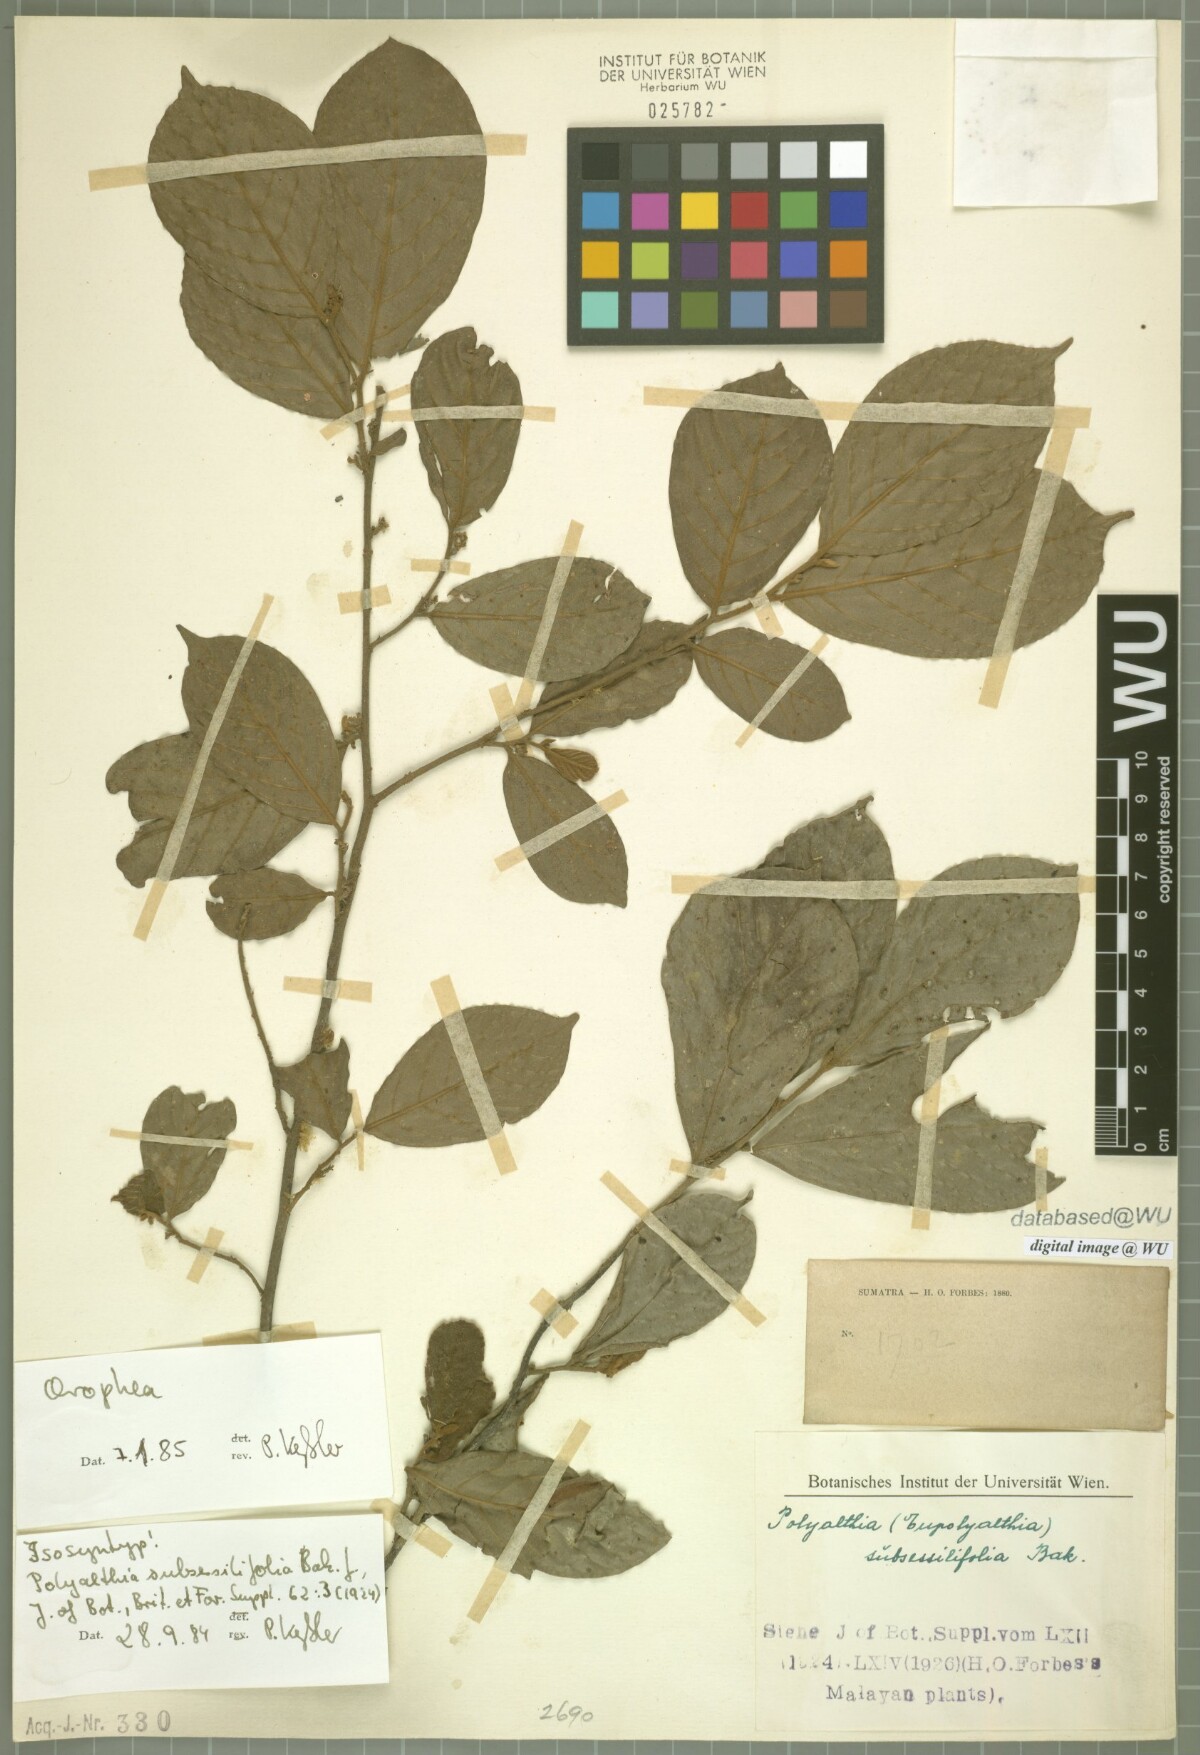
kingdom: Plantae
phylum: Tracheophyta
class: Magnoliopsida
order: Magnoliales
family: Annonaceae
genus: Polyalthia
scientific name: Polyalthia obliqua
